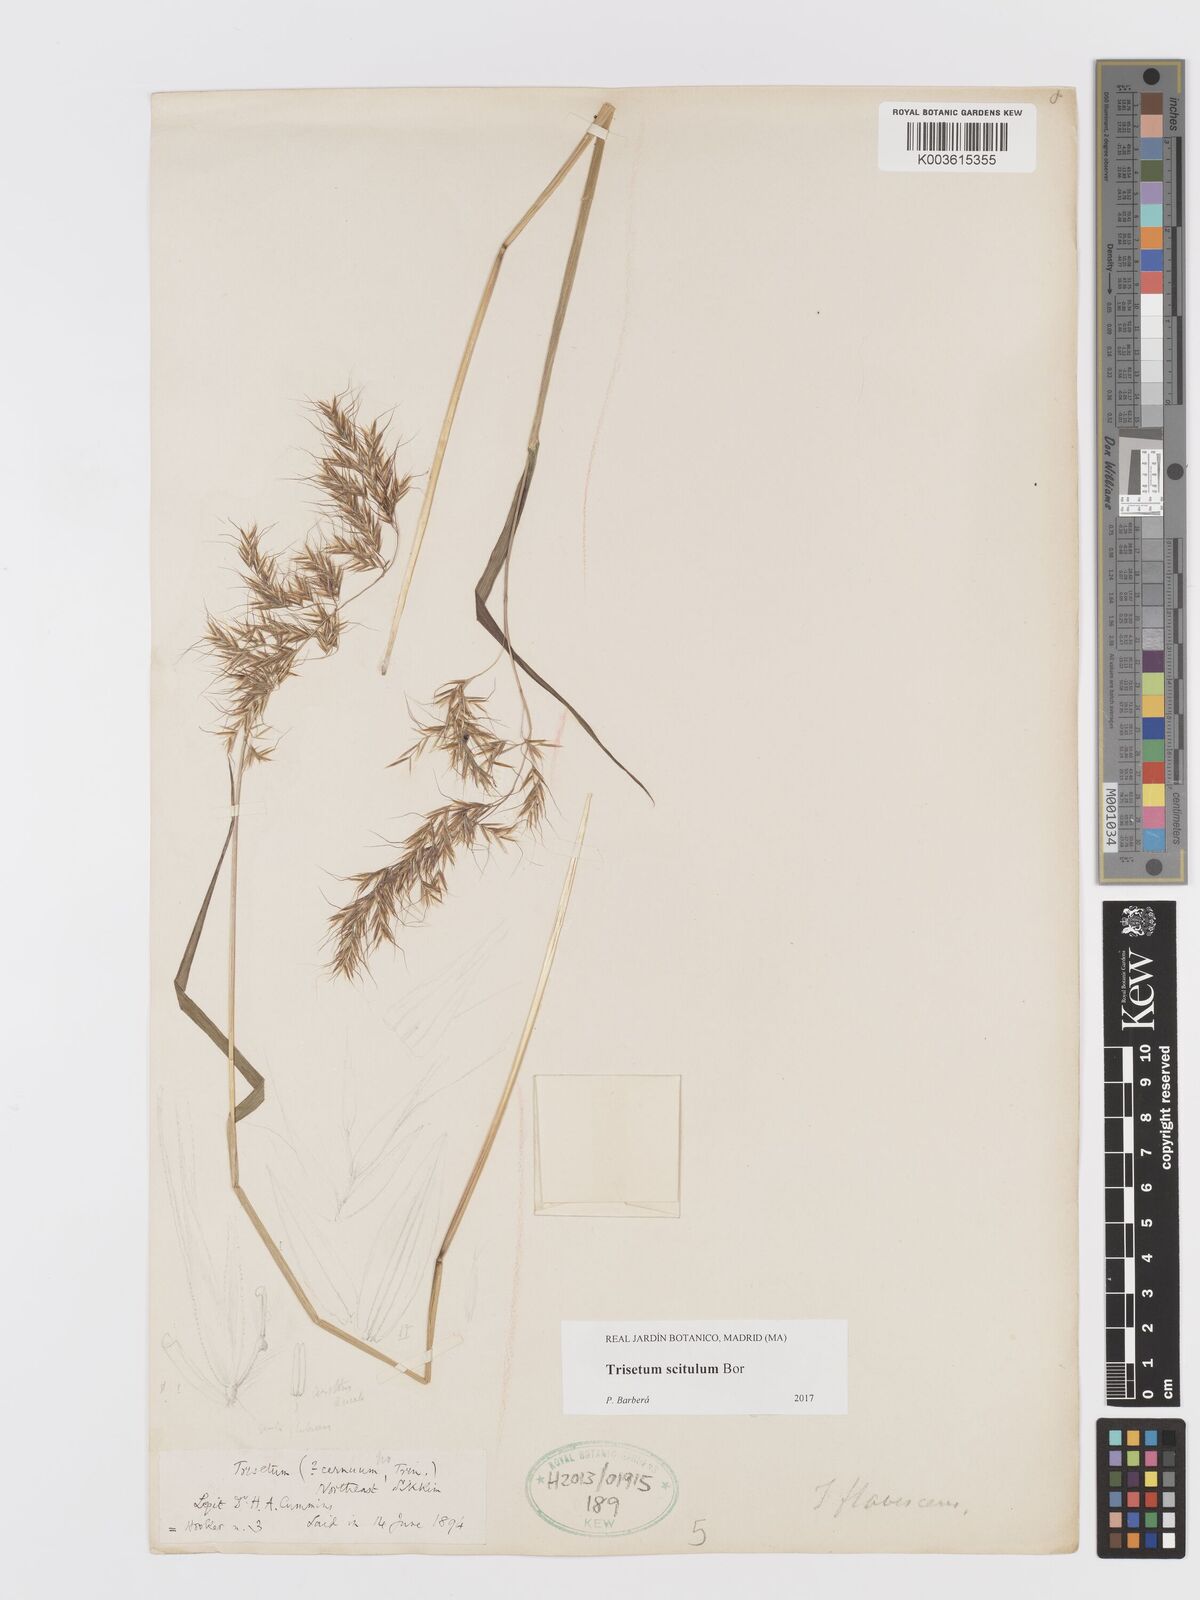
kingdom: Plantae
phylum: Tracheophyta
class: Liliopsida
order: Poales
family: Poaceae
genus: Sibirotrisetum
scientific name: Sibirotrisetum scitulum
